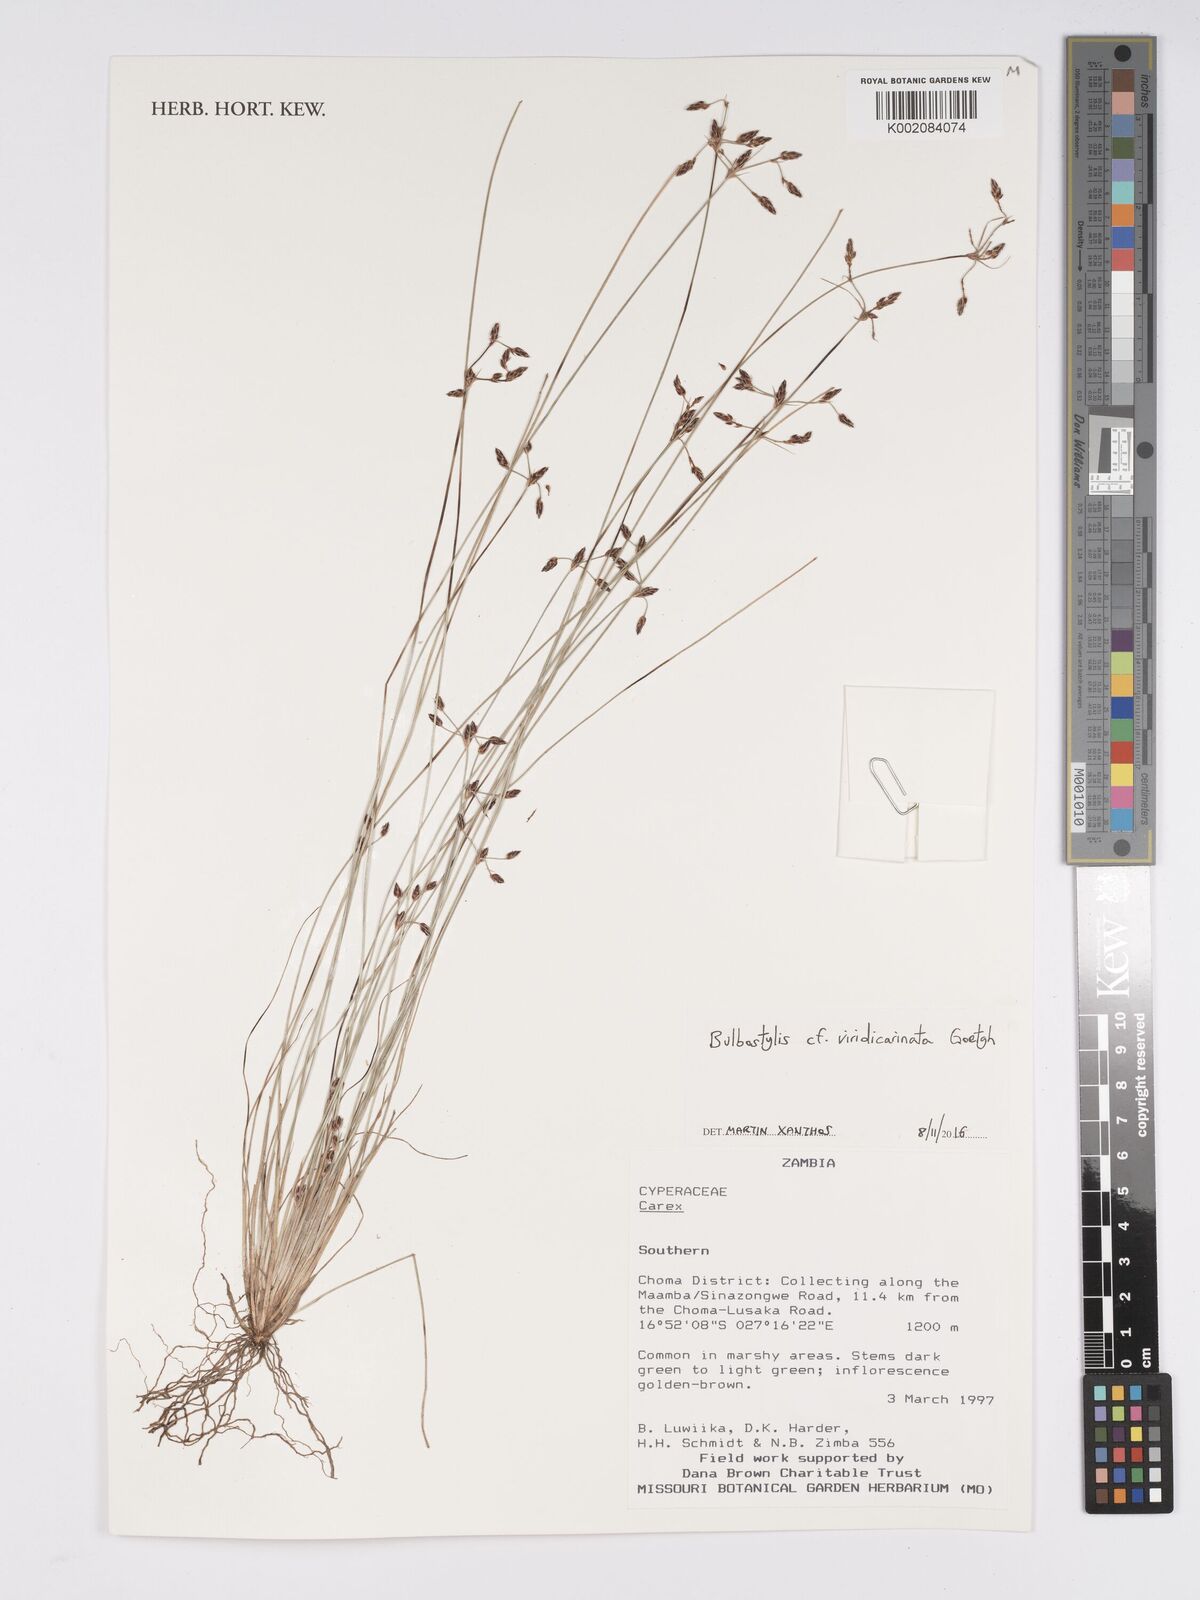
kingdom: Plantae
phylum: Tracheophyta
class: Liliopsida
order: Poales
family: Cyperaceae
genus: Bulbostylis
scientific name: Bulbostylis viridecarinata
